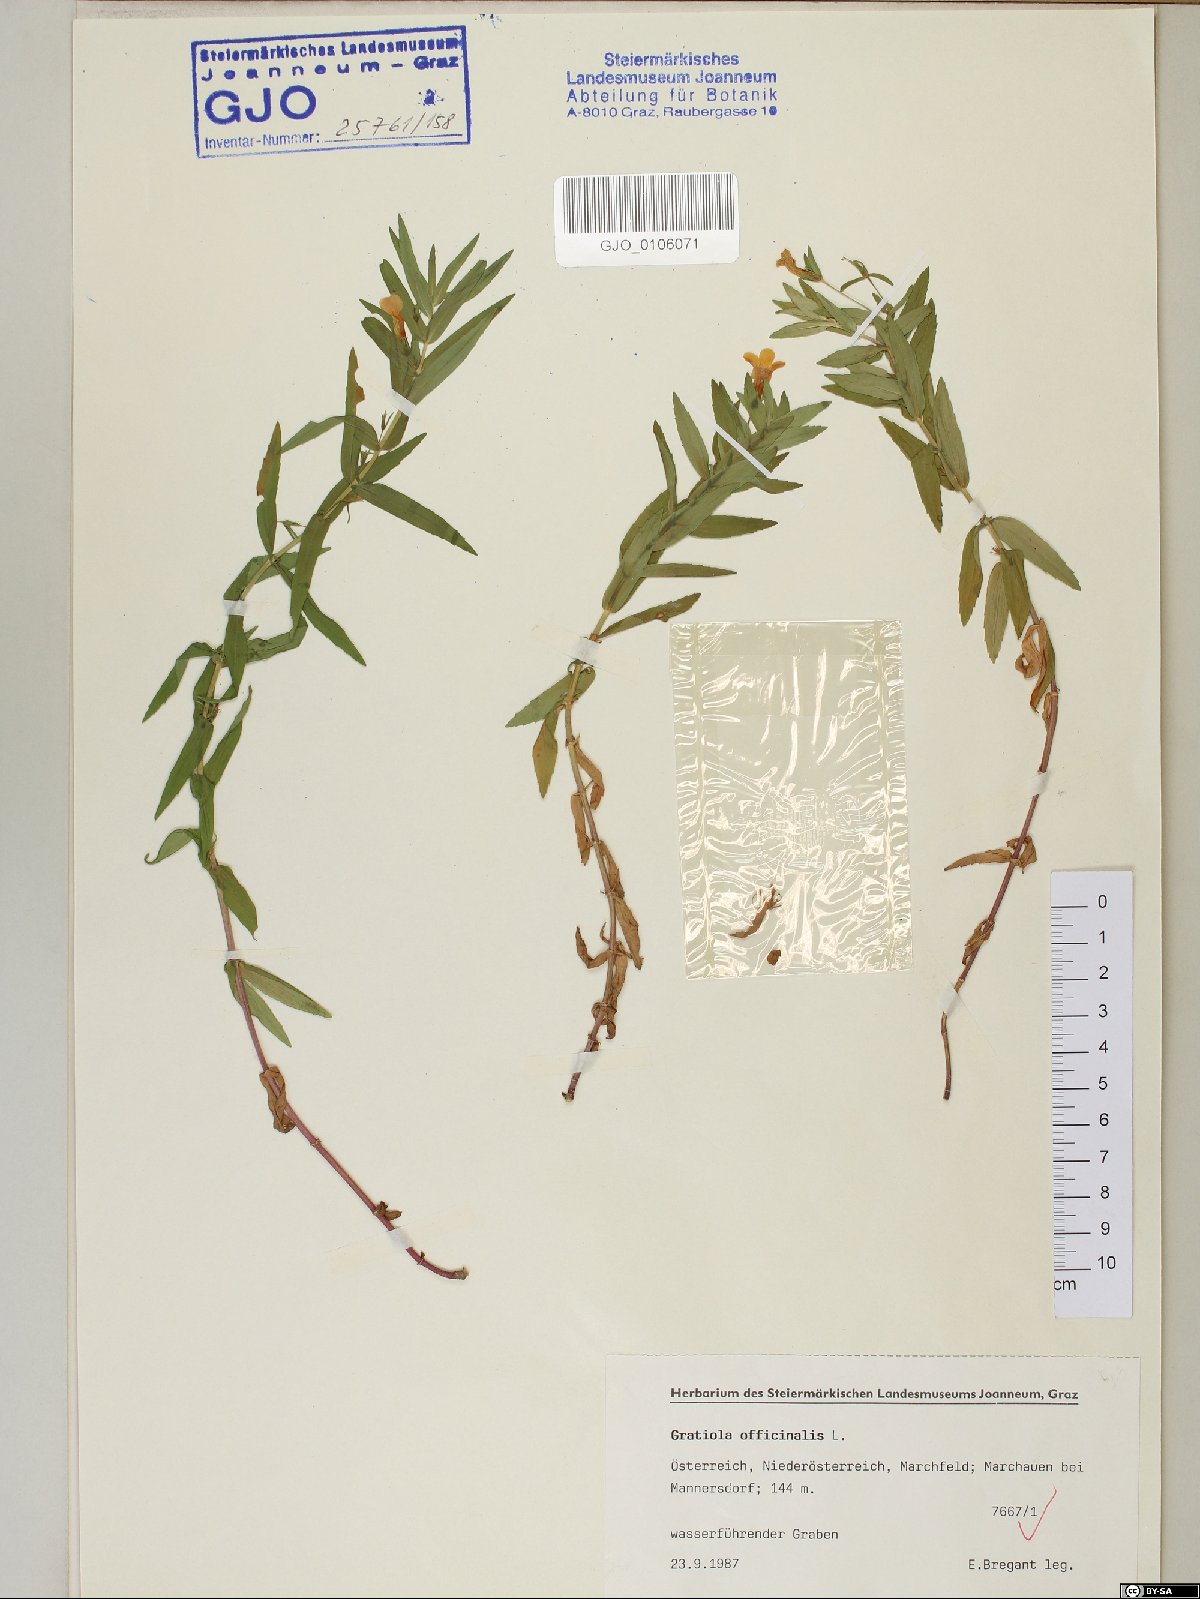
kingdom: Plantae
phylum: Tracheophyta
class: Magnoliopsida
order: Lamiales
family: Plantaginaceae
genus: Gratiola
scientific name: Gratiola officinalis
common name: Gratiola
